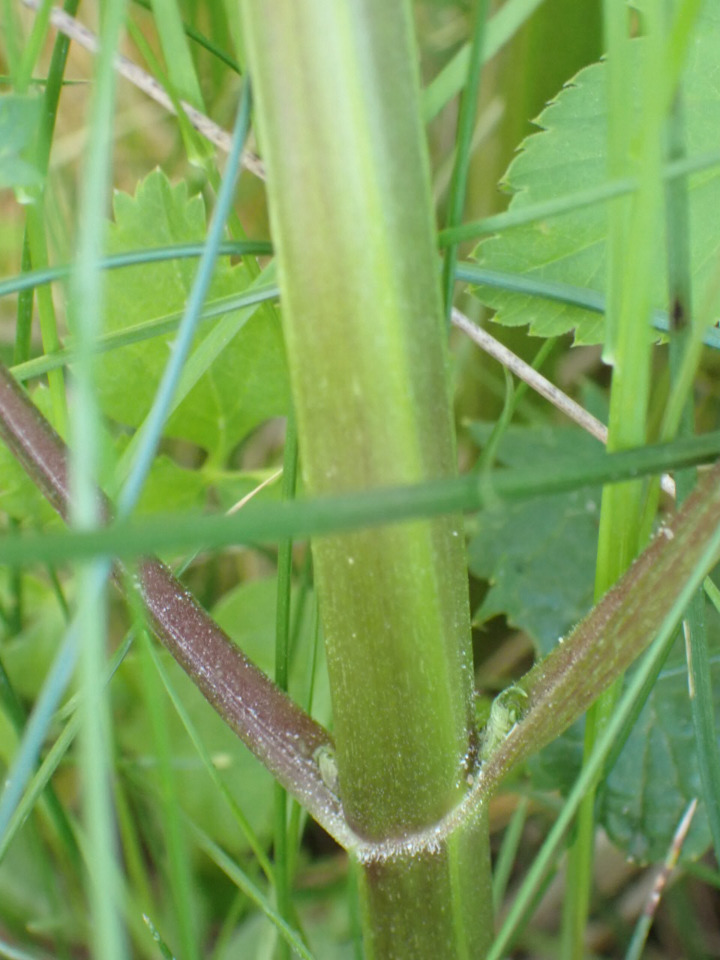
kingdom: Plantae
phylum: Tracheophyta
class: Magnoliopsida
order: Lamiales
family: Scrophulariaceae
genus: Scrophularia
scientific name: Scrophularia nodosa
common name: Knoldet brunrod
